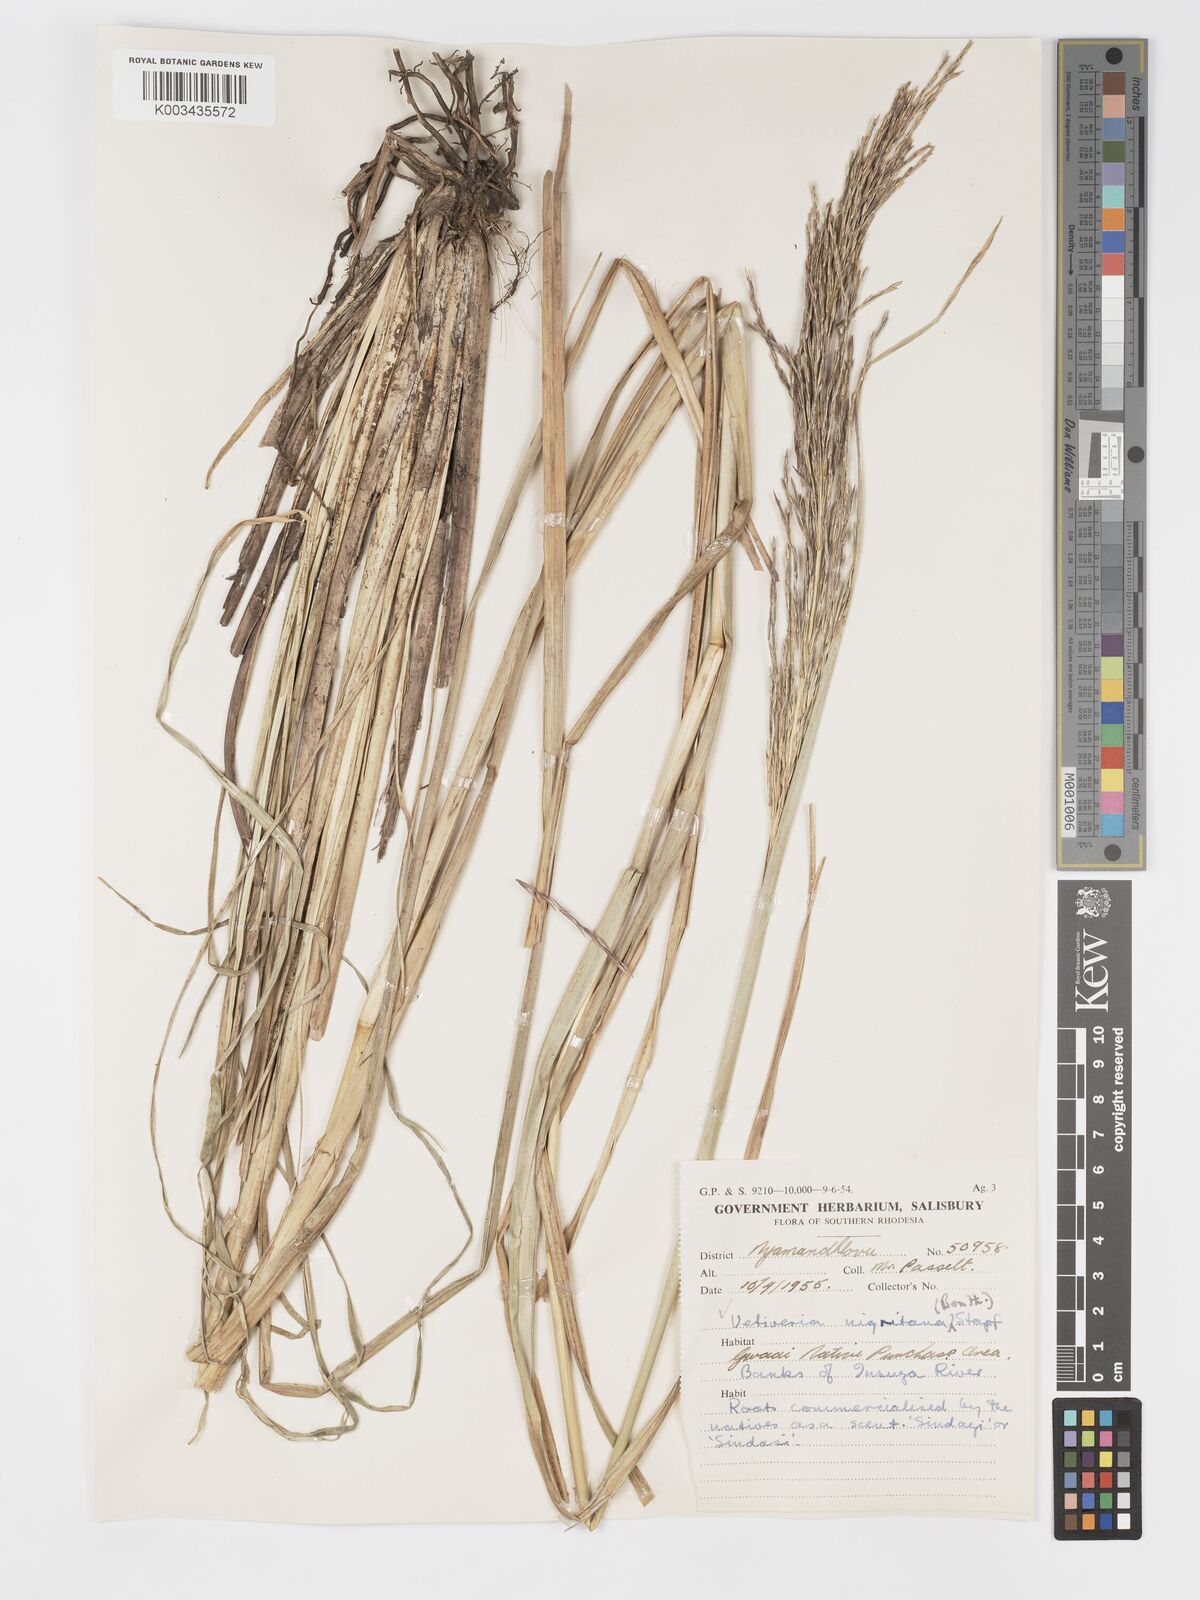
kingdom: Plantae
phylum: Tracheophyta
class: Liliopsida
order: Poales
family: Poaceae
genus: Chrysopogon
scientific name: Chrysopogon nigritanus
